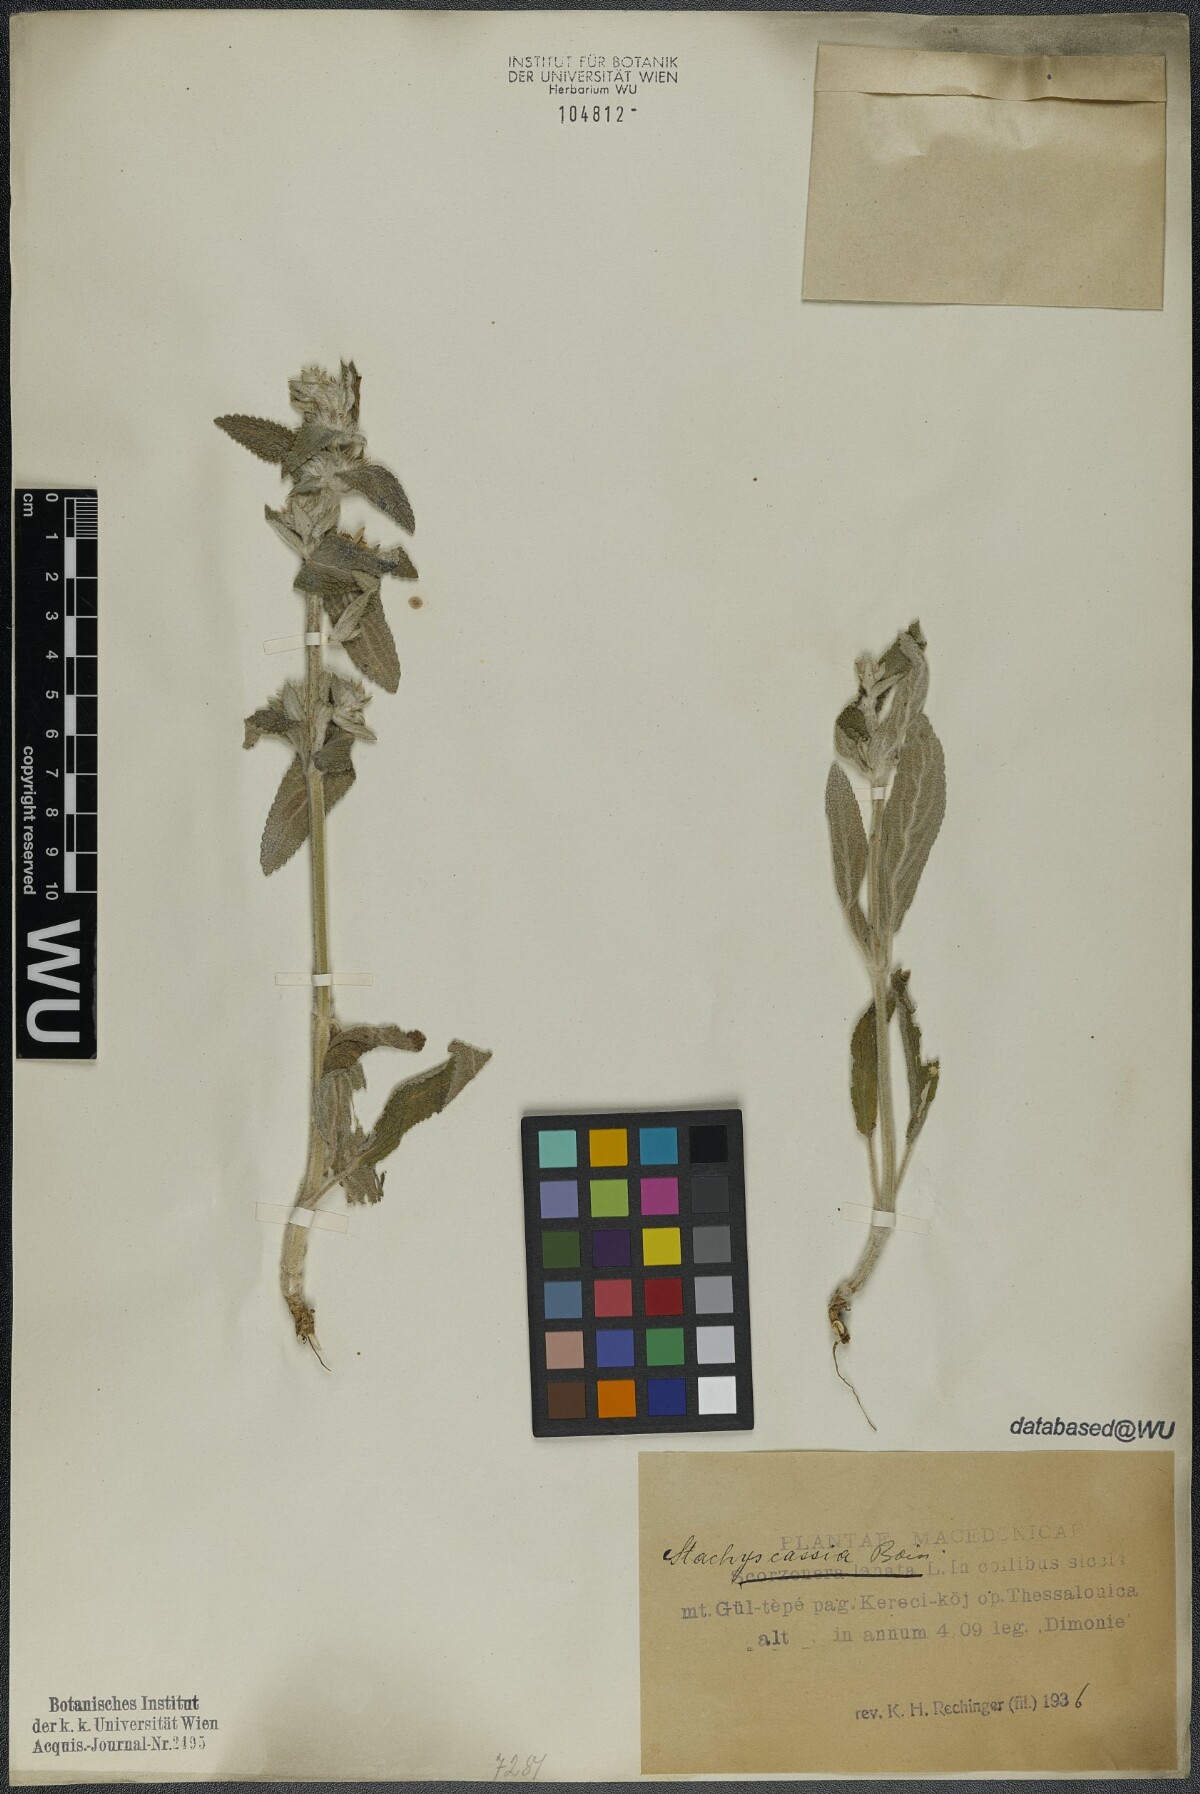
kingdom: Plantae
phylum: Tracheophyta
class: Magnoliopsida
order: Lamiales
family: Lamiaceae
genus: Stachys
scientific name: Stachys cretica
